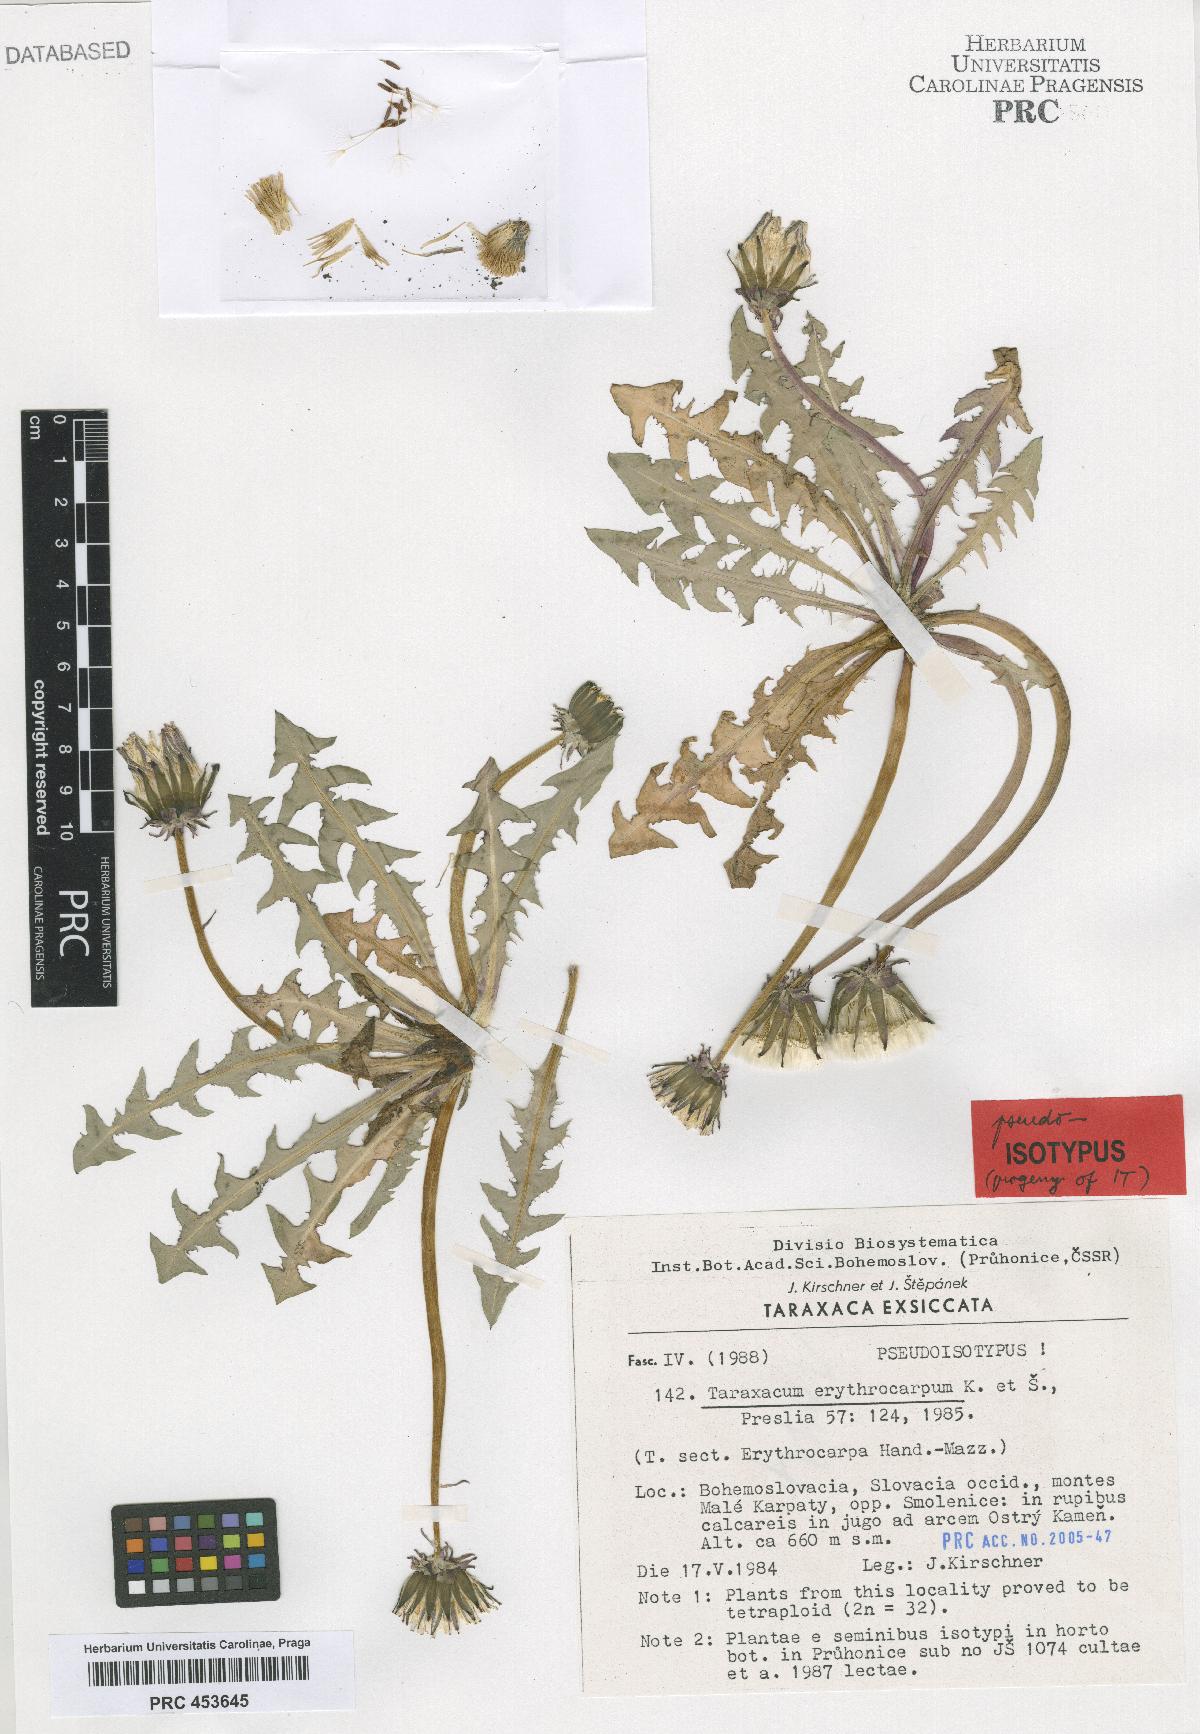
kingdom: Plantae
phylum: Tracheophyta
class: Magnoliopsida
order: Asterales
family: Asteraceae
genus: Taraxacum
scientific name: Taraxacum erythrocarpum
